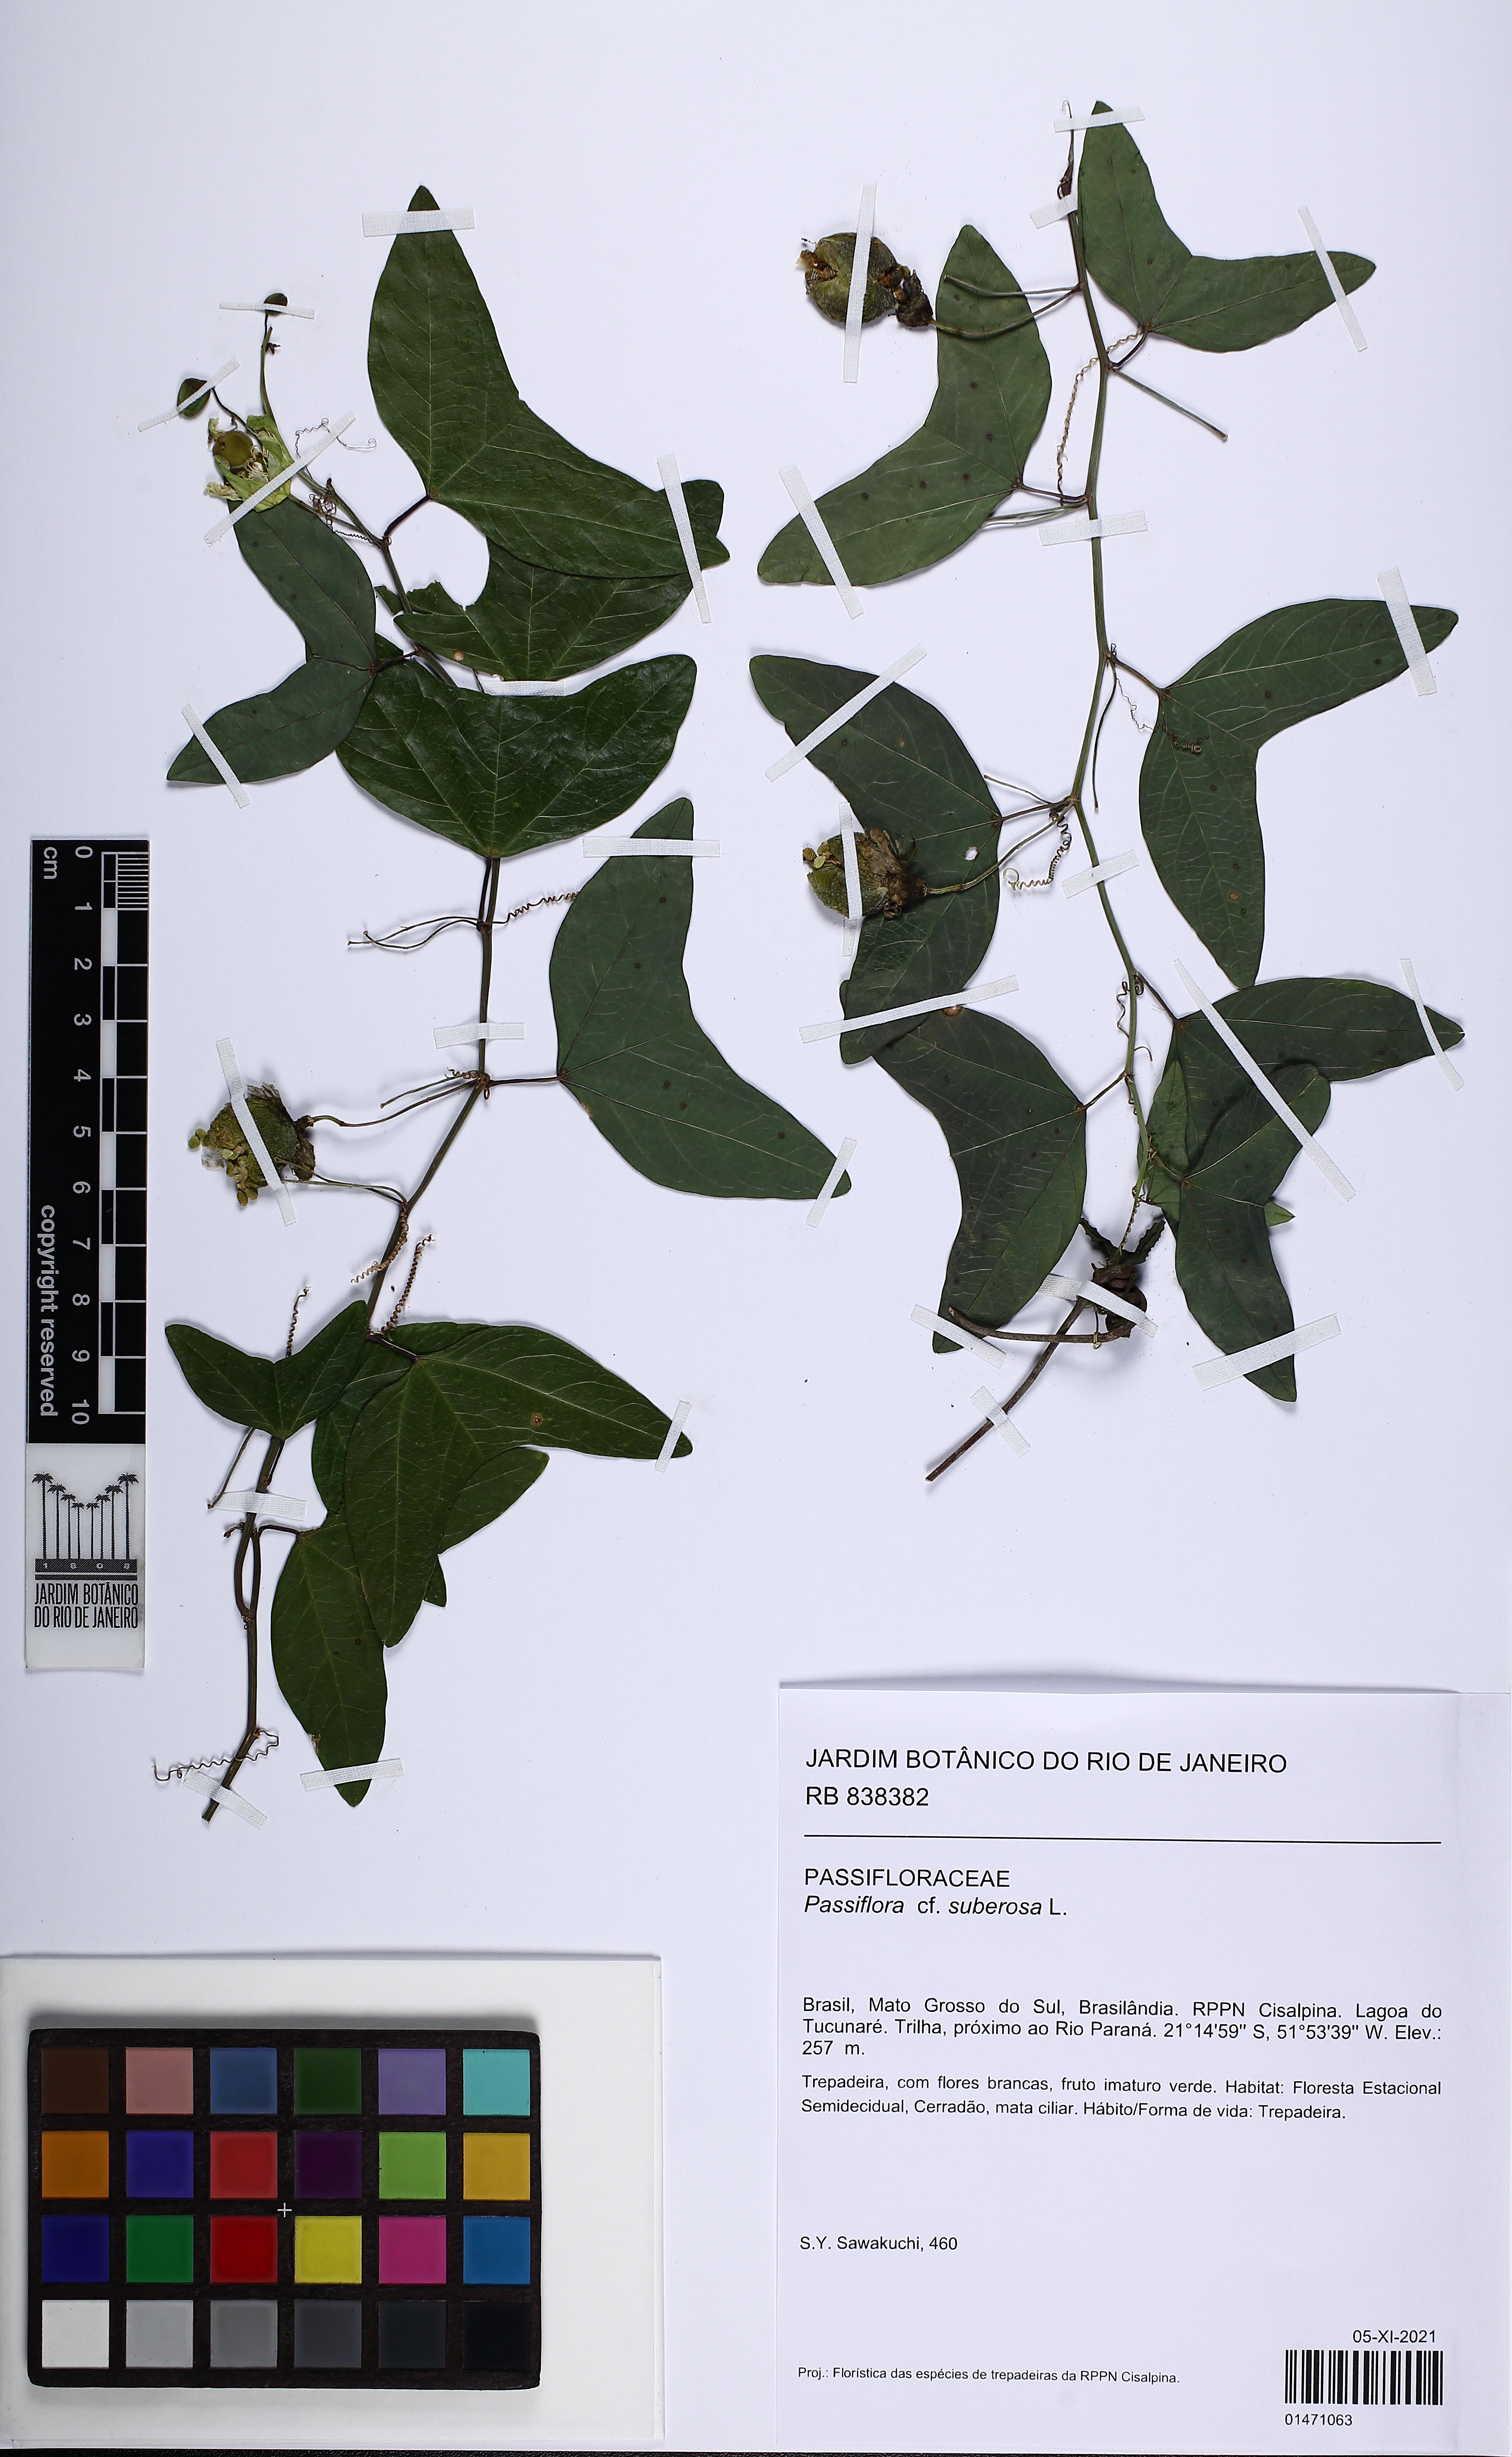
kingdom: Plantae
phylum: Tracheophyta
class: Magnoliopsida
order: Malpighiales
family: Passifloraceae
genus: Passiflora
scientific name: Passiflora suberosa
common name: Wild passionfruit
